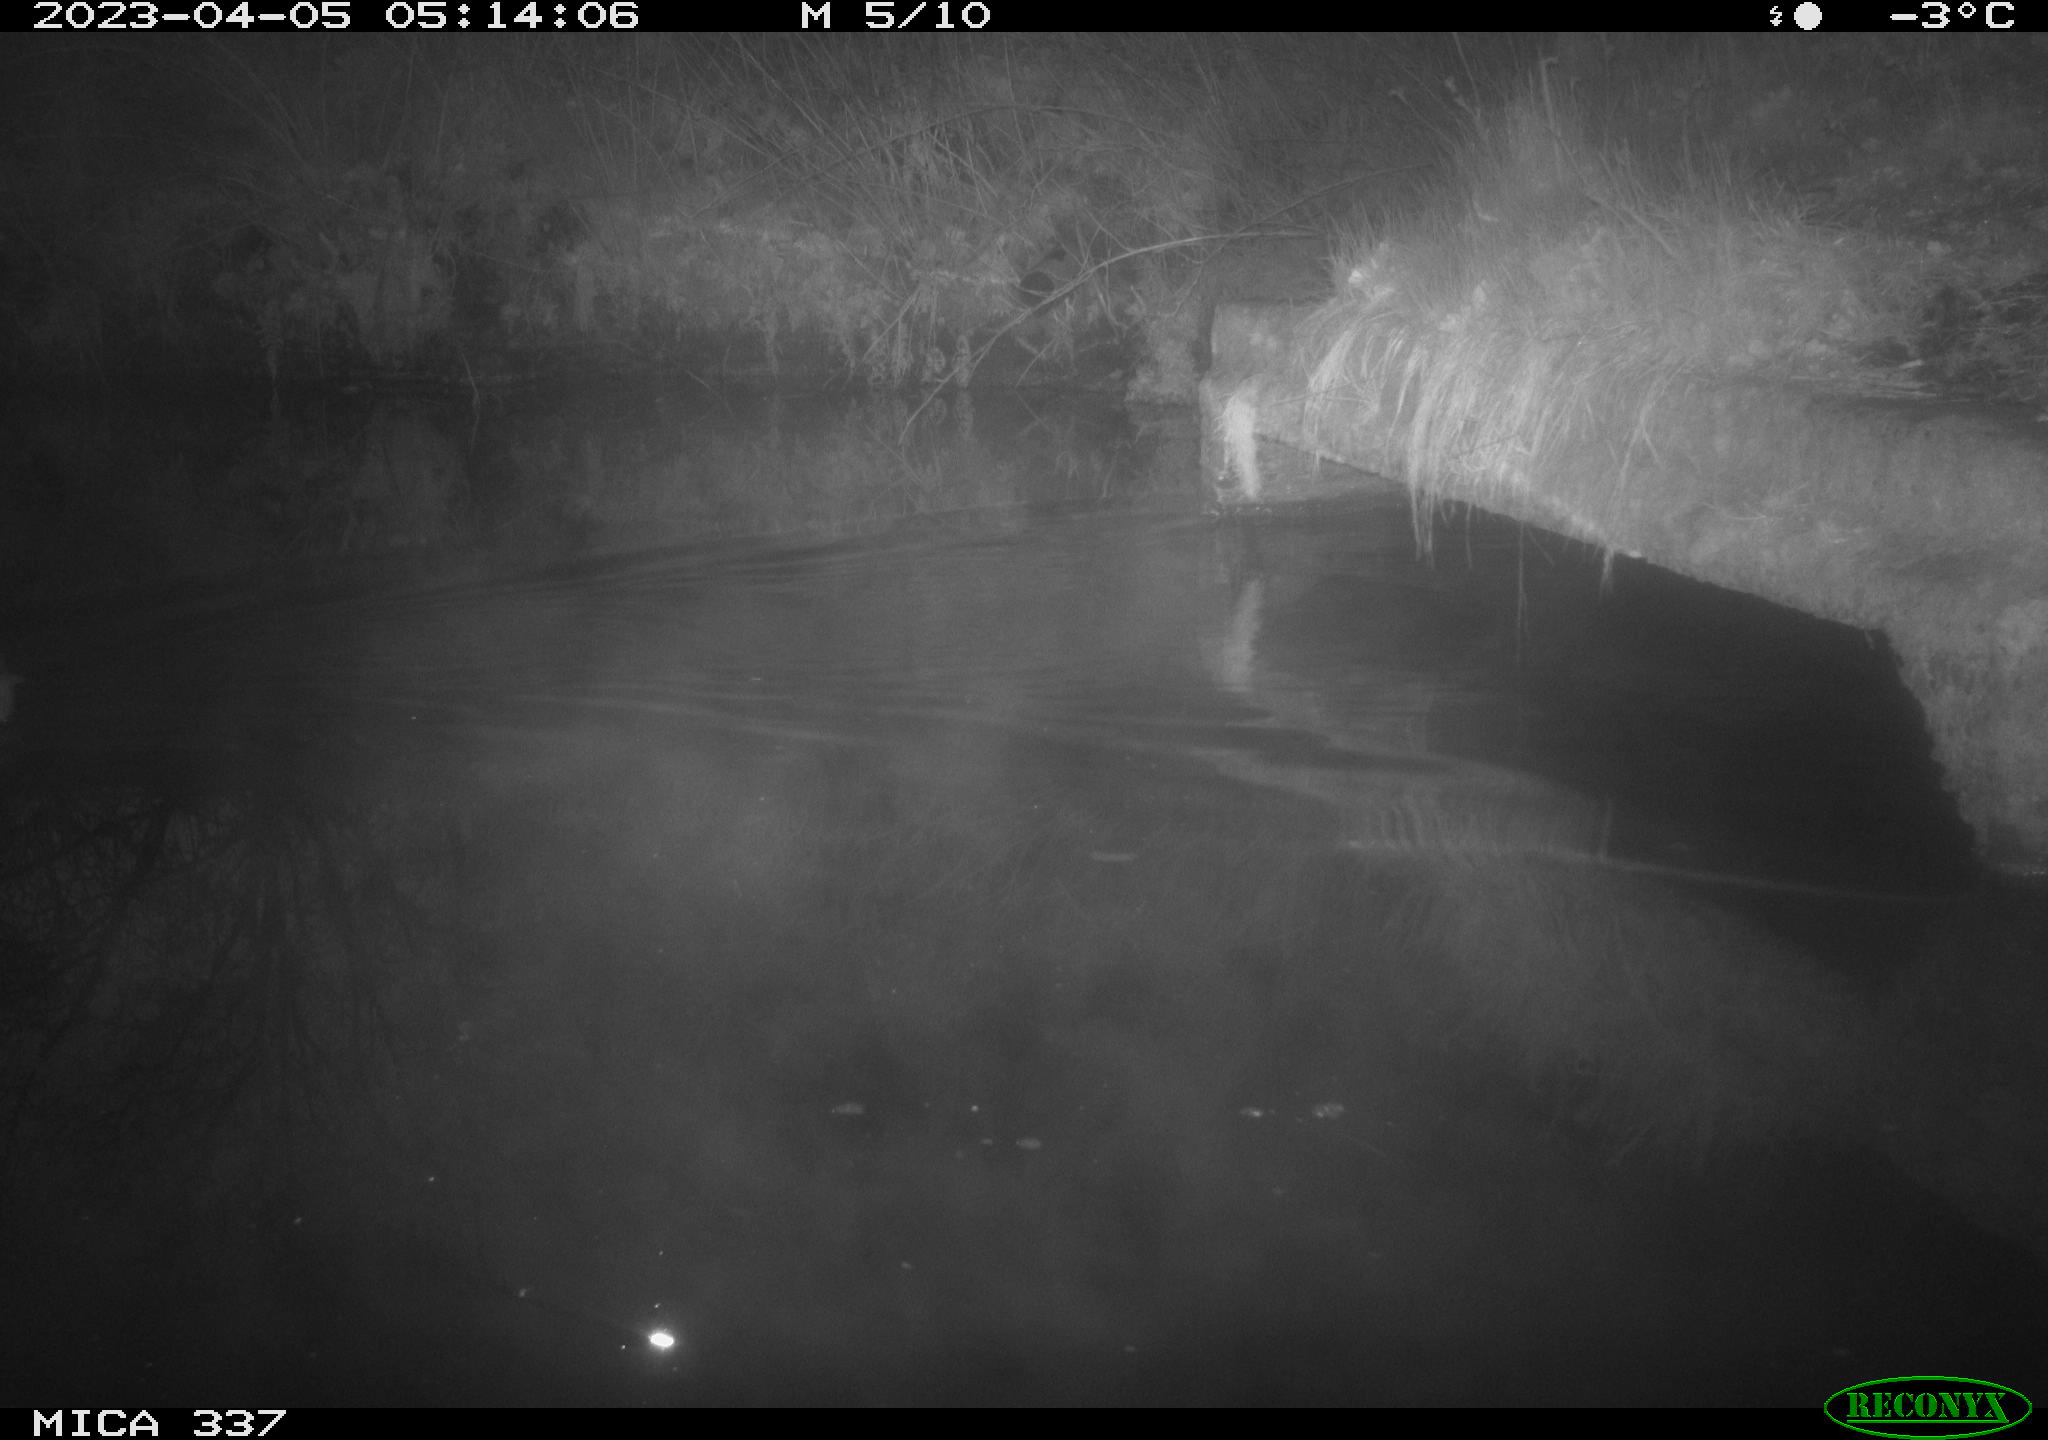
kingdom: Animalia
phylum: Chordata
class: Aves
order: Anseriformes
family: Anatidae
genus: Anas
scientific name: Anas
